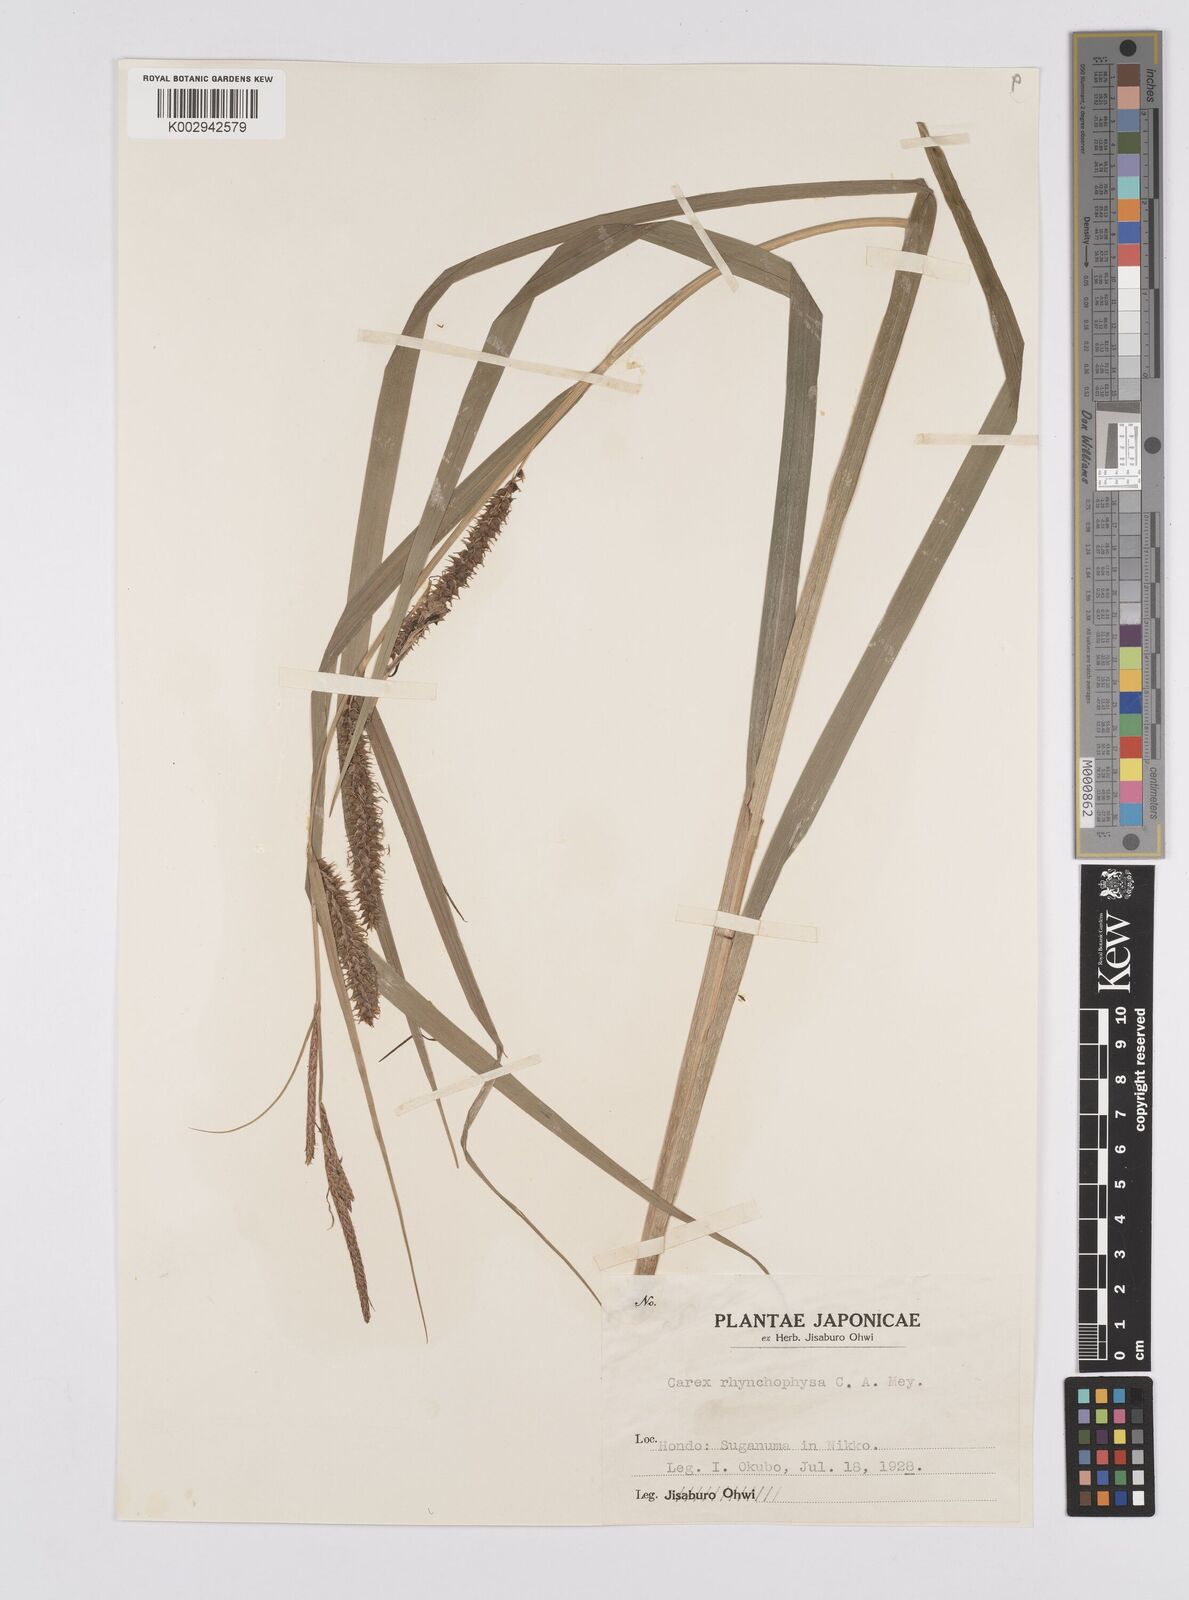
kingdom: Plantae
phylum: Tracheophyta
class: Liliopsida
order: Poales
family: Cyperaceae
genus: Carex
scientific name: Carex utriculata
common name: Beaked sedge
